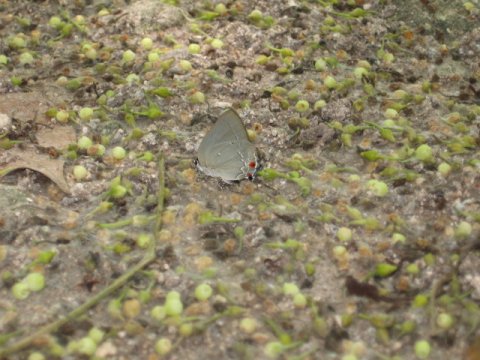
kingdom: Animalia
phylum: Arthropoda
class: Insecta
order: Lepidoptera
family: Lycaenidae
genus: Thecla
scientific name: Thecla falerina
